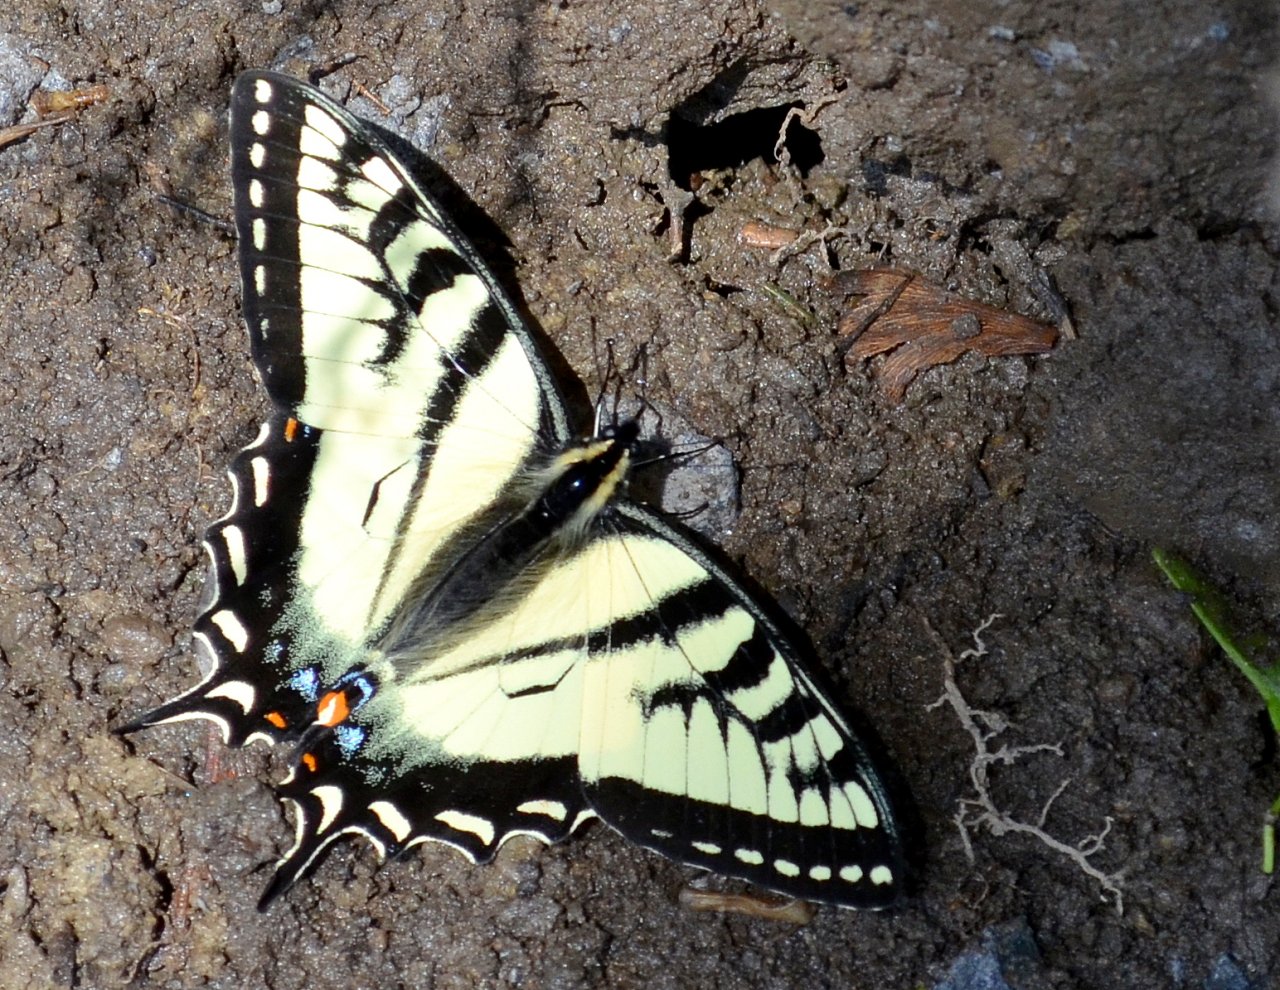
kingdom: Animalia
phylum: Arthropoda
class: Insecta
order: Lepidoptera
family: Papilionidae
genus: Pterourus
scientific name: Pterourus canadensis
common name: Canadian Tiger Swallowtail
